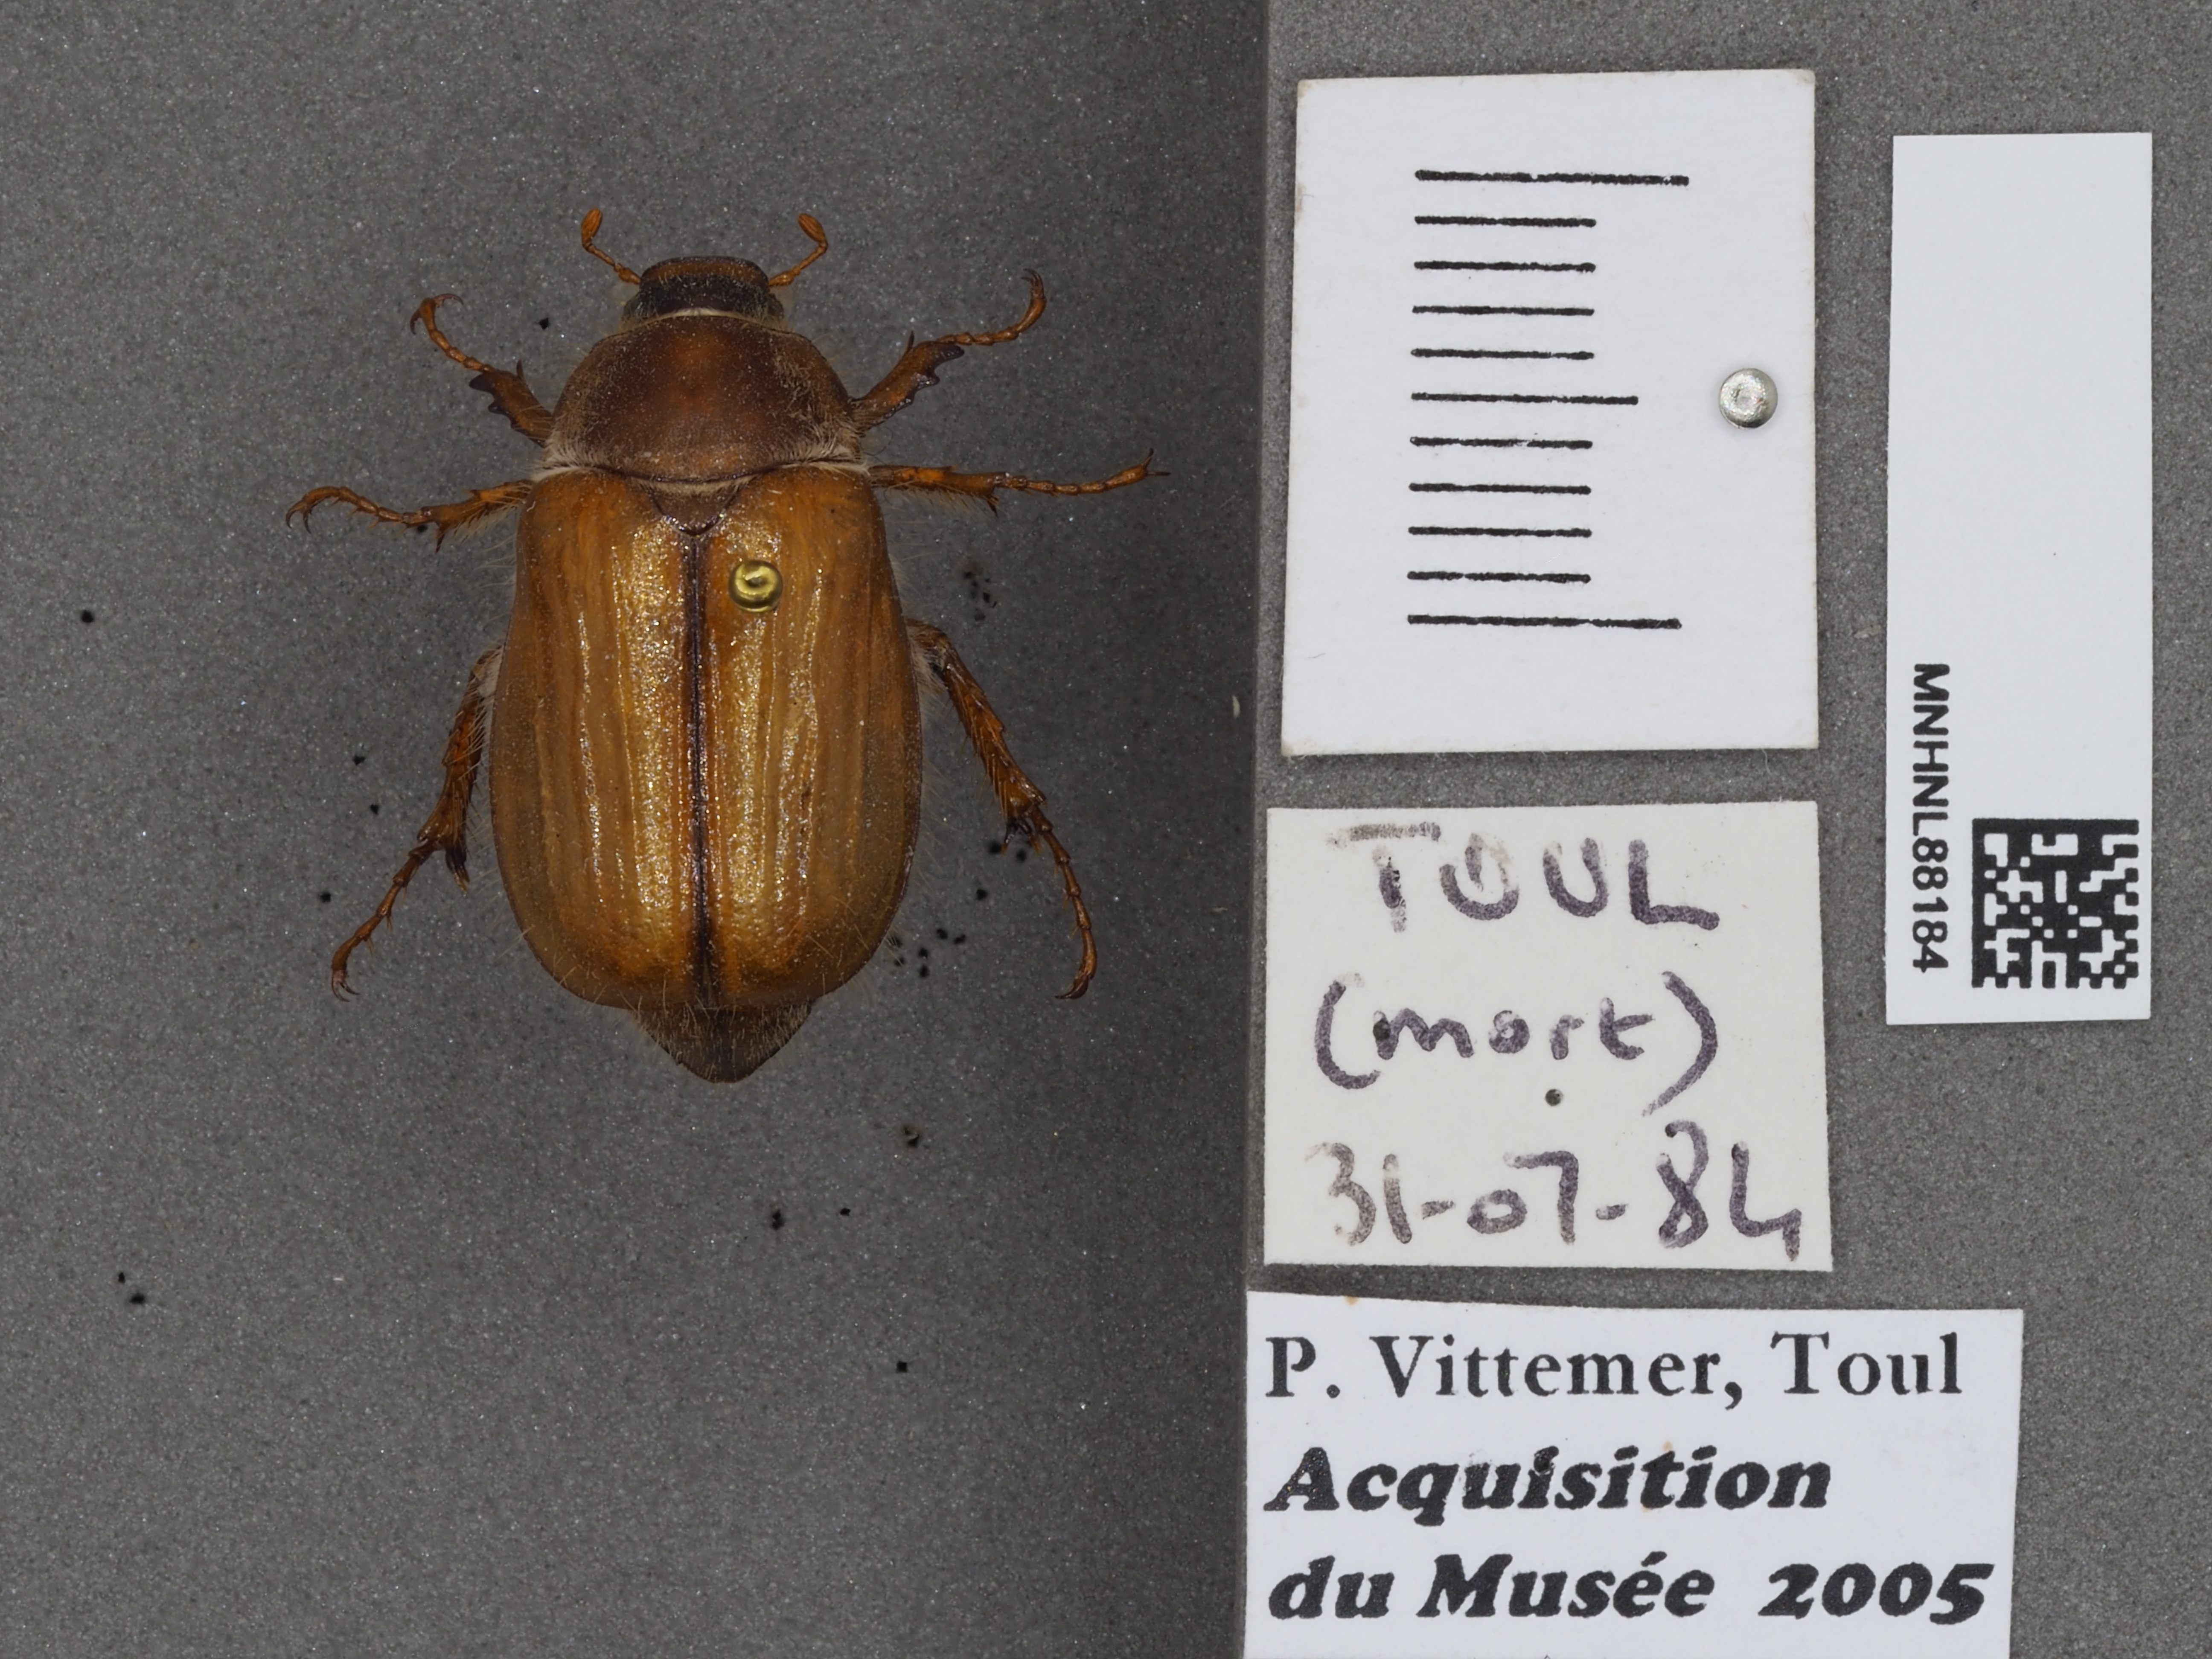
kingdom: Animalia
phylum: Arthropoda
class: Insecta
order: Coleoptera
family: Scarabaeidae
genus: Amphimallon
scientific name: Amphimallon solstitiale
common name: Summer chafer
